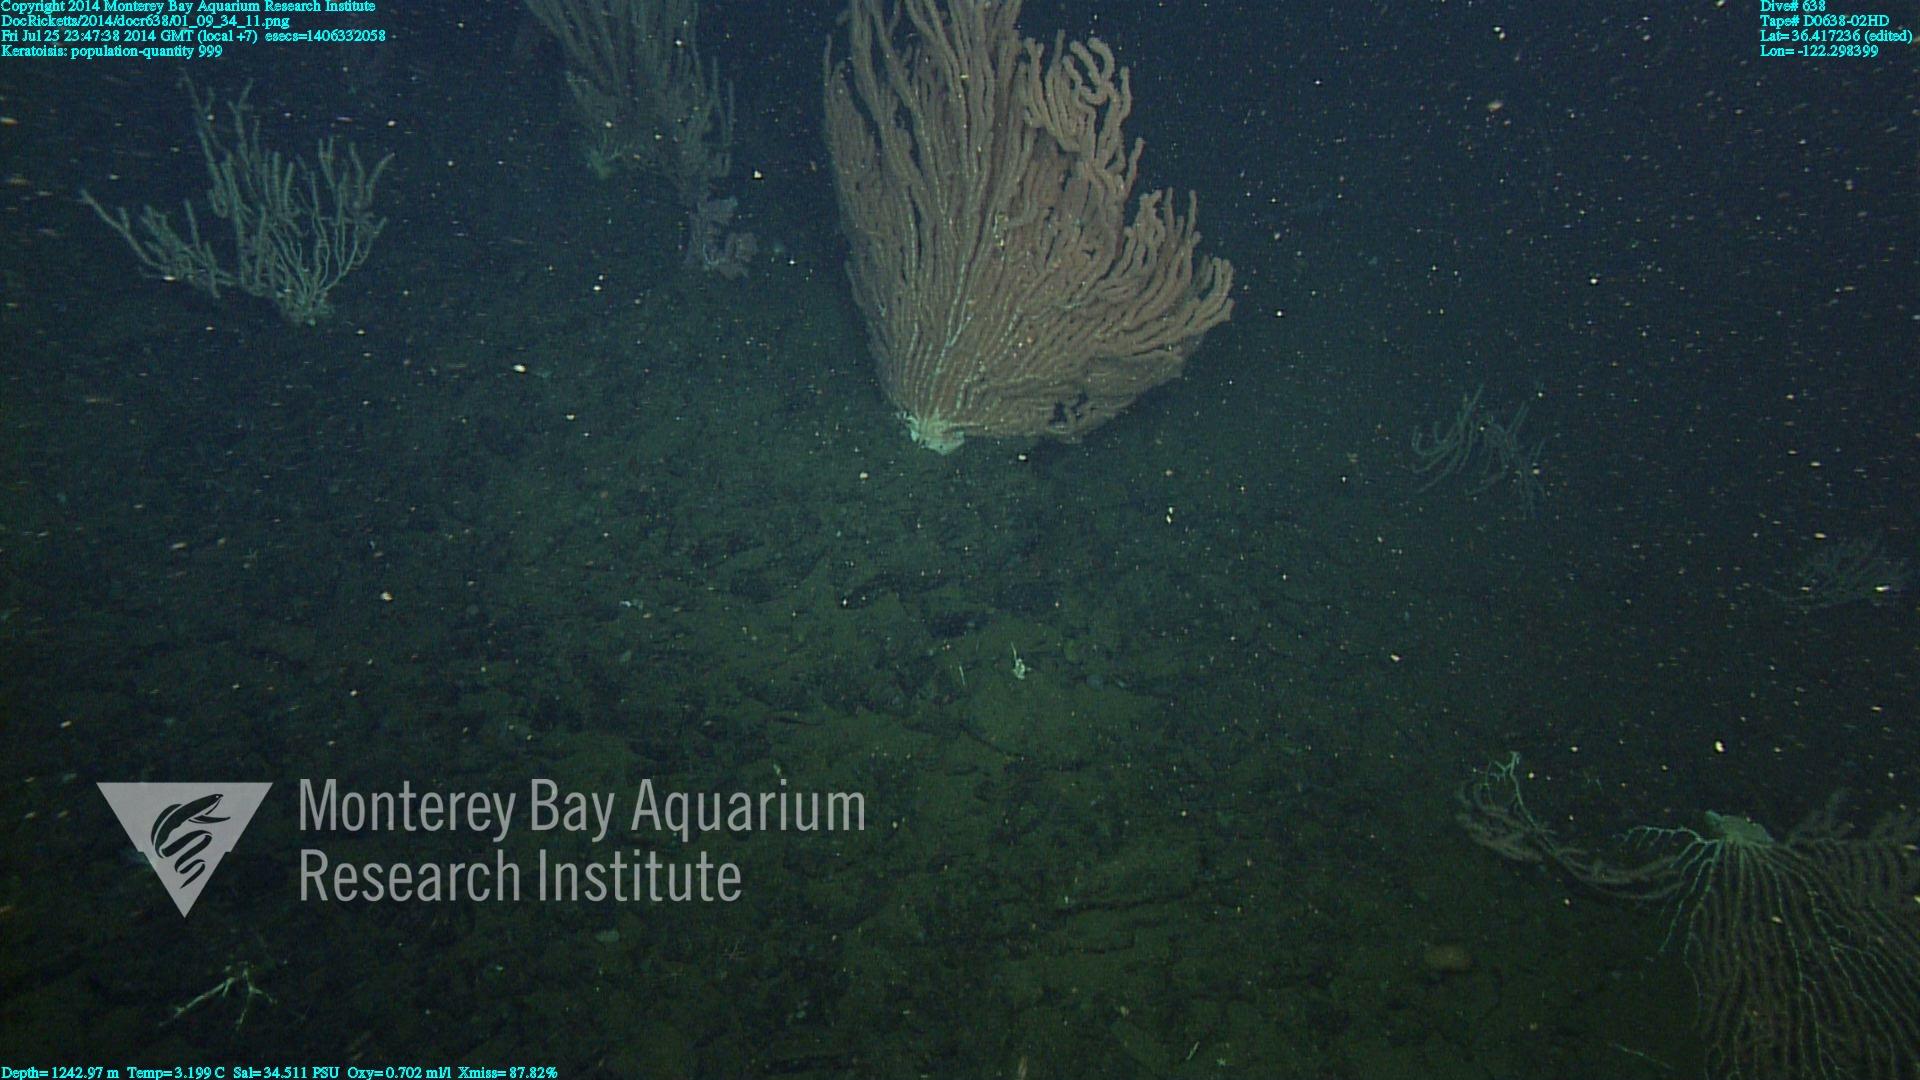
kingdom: Animalia
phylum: Cnidaria
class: Anthozoa
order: Scleralcyonacea
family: Keratoisididae
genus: Keratoisis
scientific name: Keratoisis
